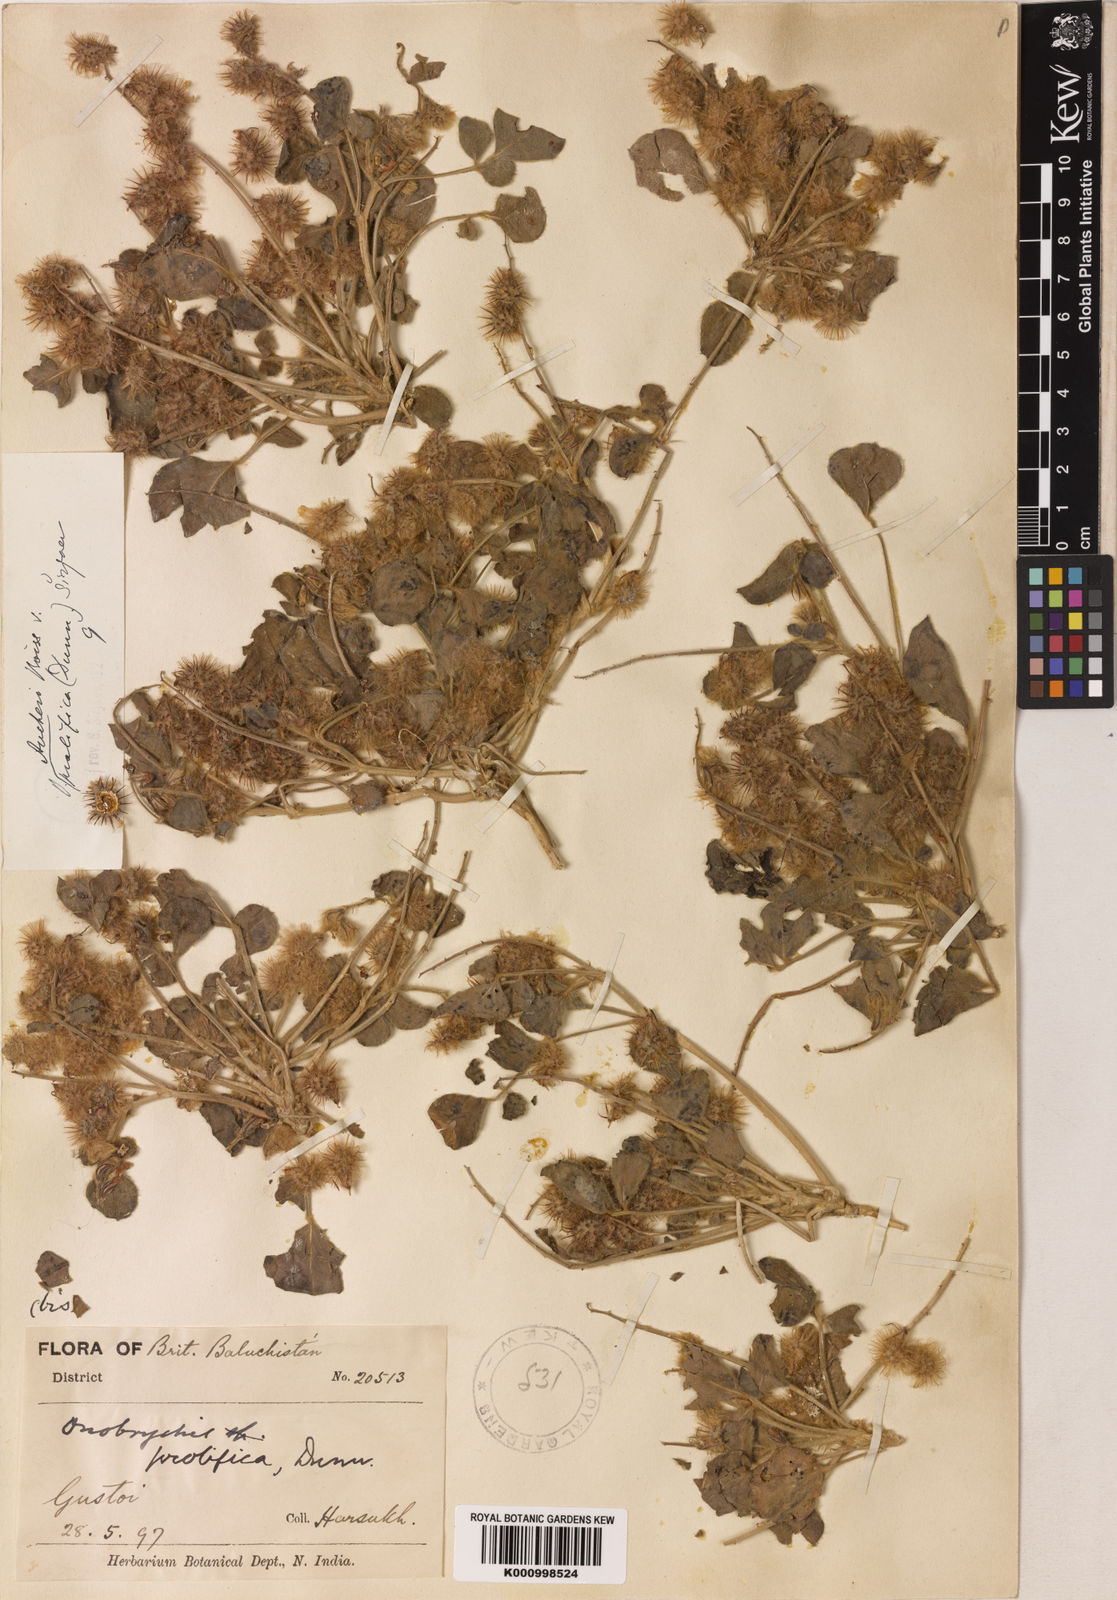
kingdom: Plantae
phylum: Tracheophyta
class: Magnoliopsida
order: Fabales
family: Fabaceae
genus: Onobrychis
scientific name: Onobrychis aucheri
